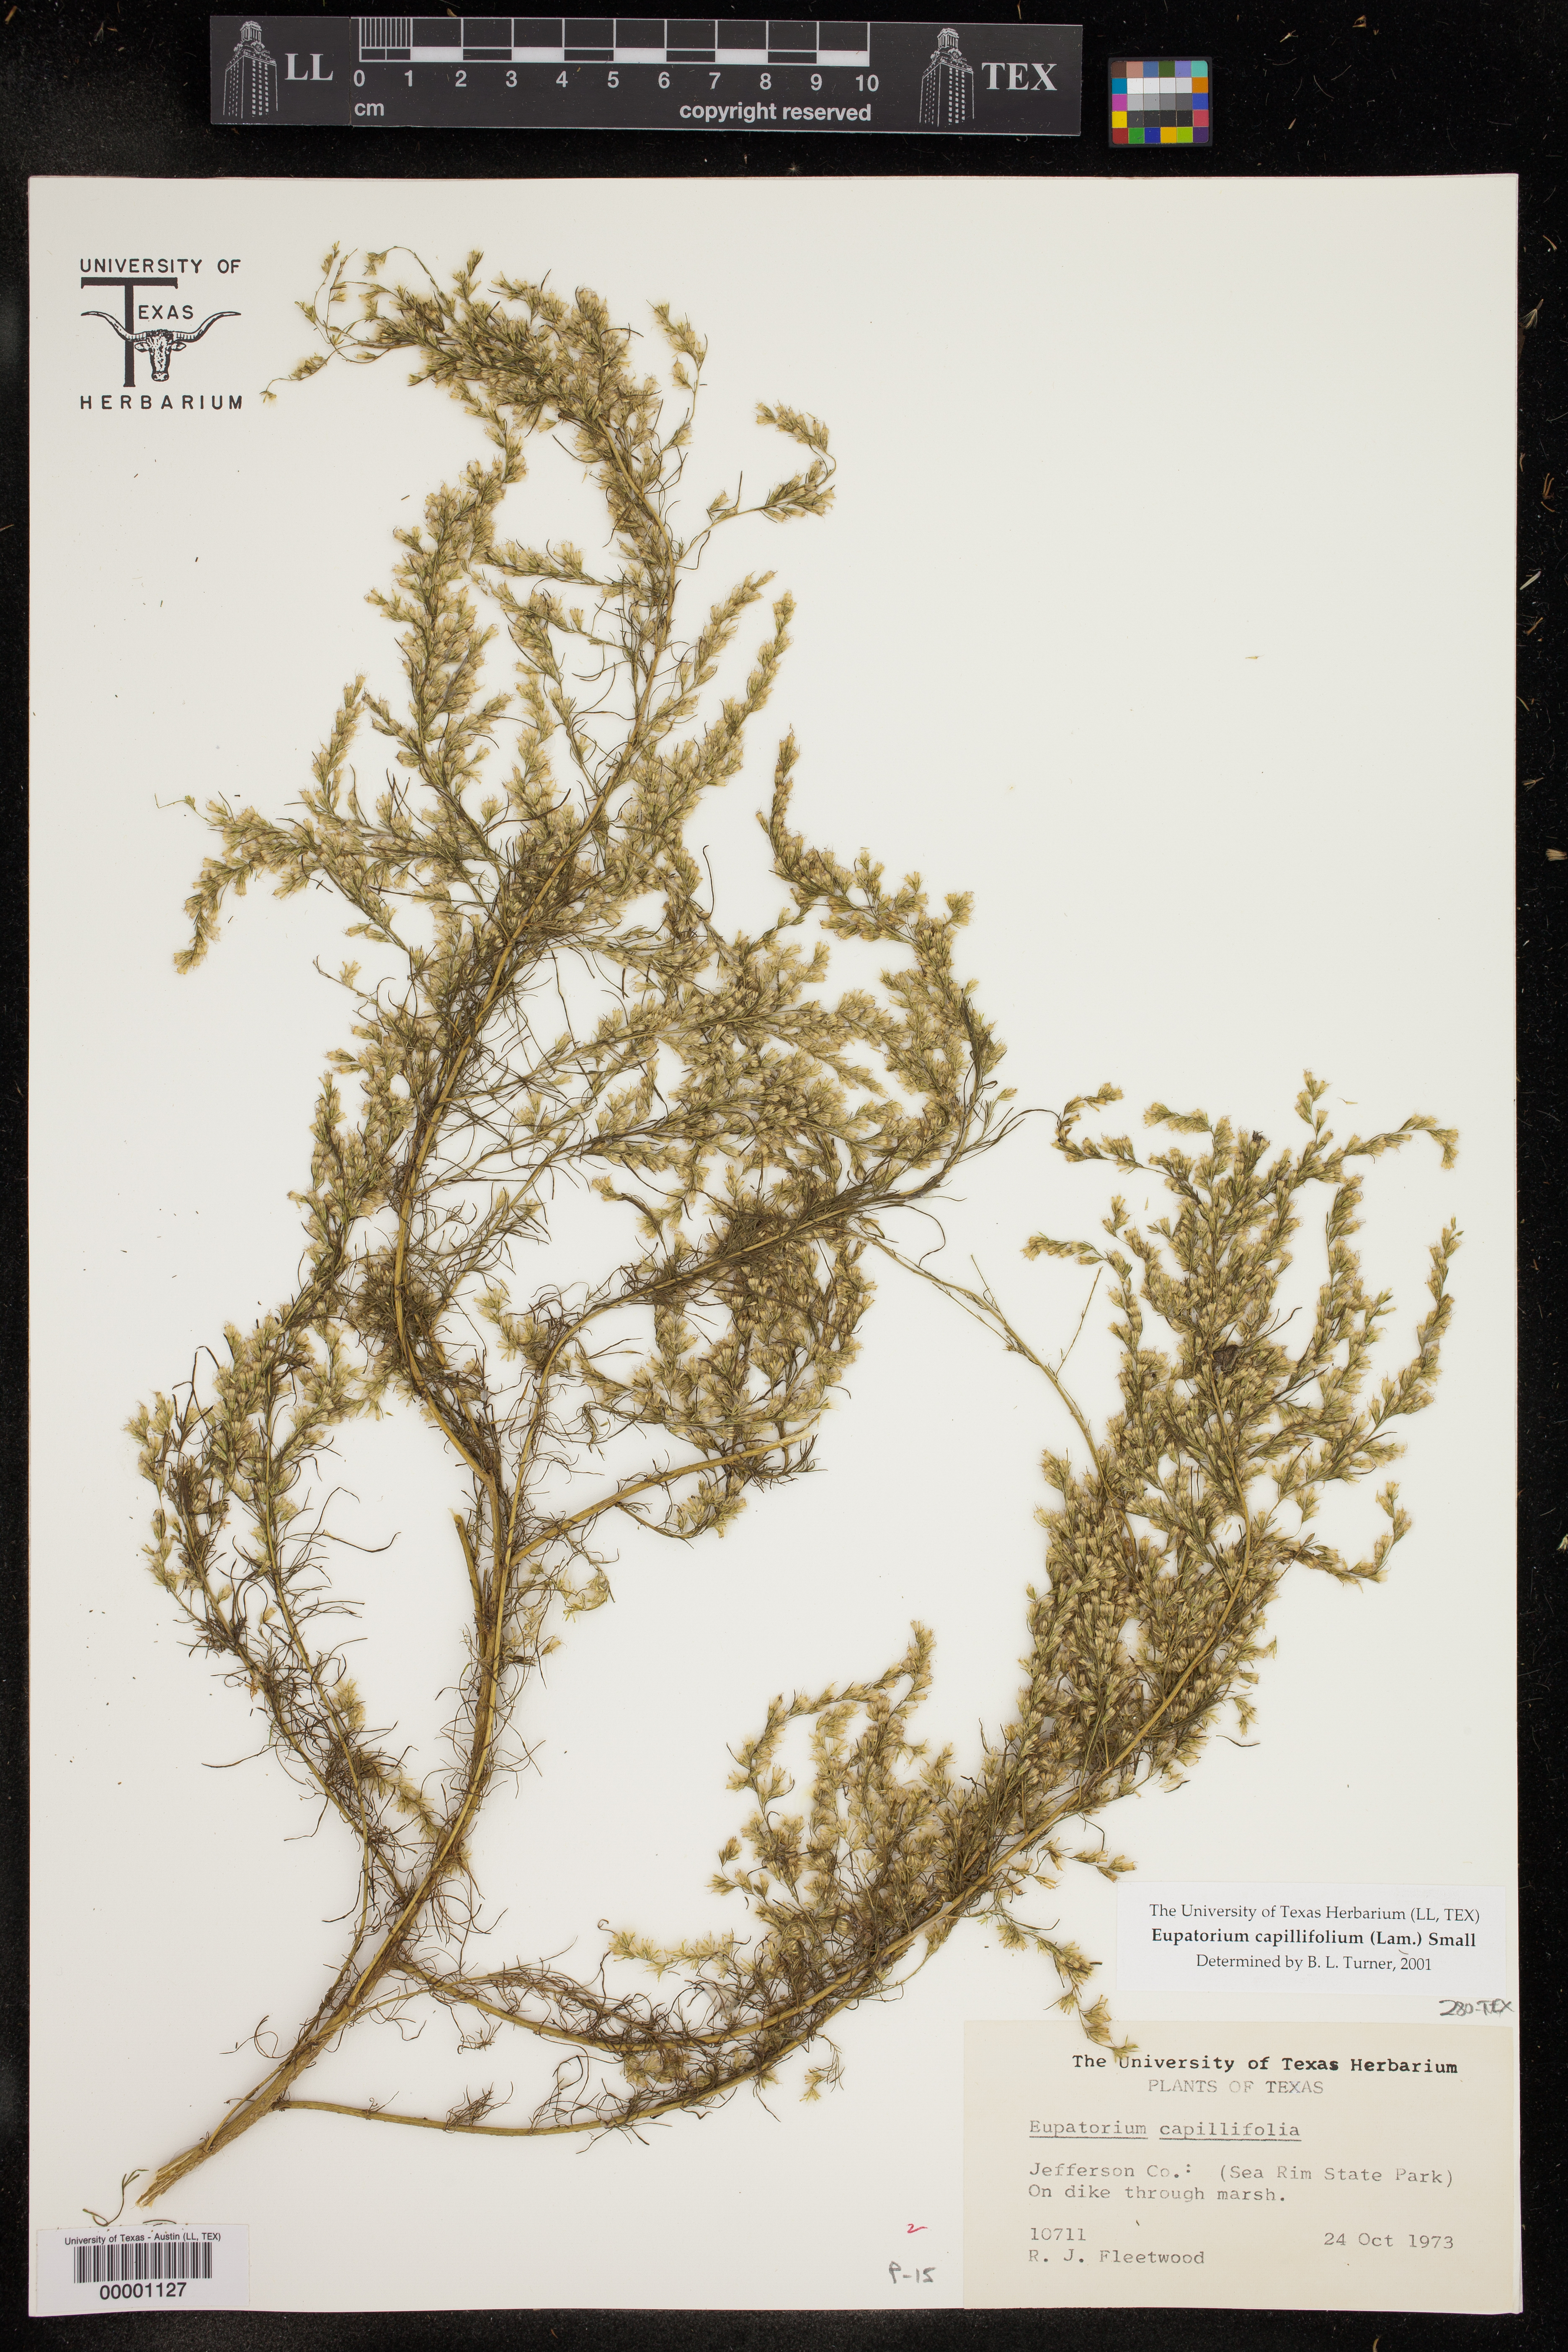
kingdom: Plantae
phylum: Tracheophyta
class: Magnoliopsida
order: Asterales
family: Asteraceae
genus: Eupatorium
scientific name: Eupatorium capillifolium
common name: Dog-fennel
